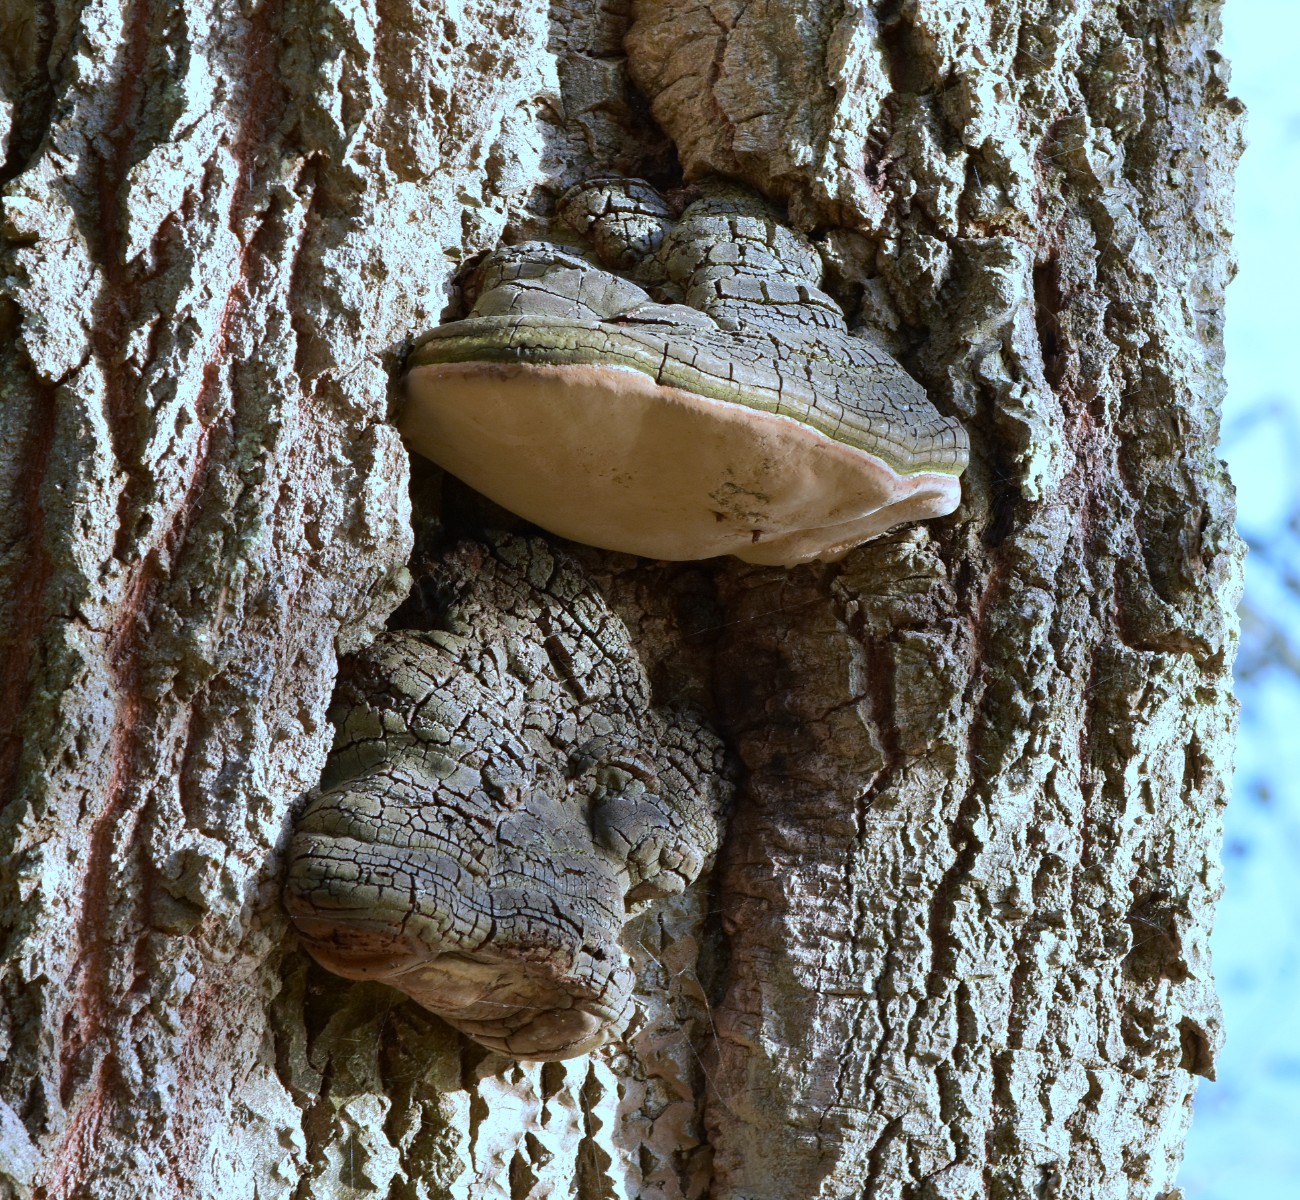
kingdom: Fungi
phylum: Basidiomycota
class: Agaricomycetes
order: Hymenochaetales
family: Hymenochaetaceae
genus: Phellinus
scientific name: Phellinus populicola
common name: poppel-ildporesvamp
